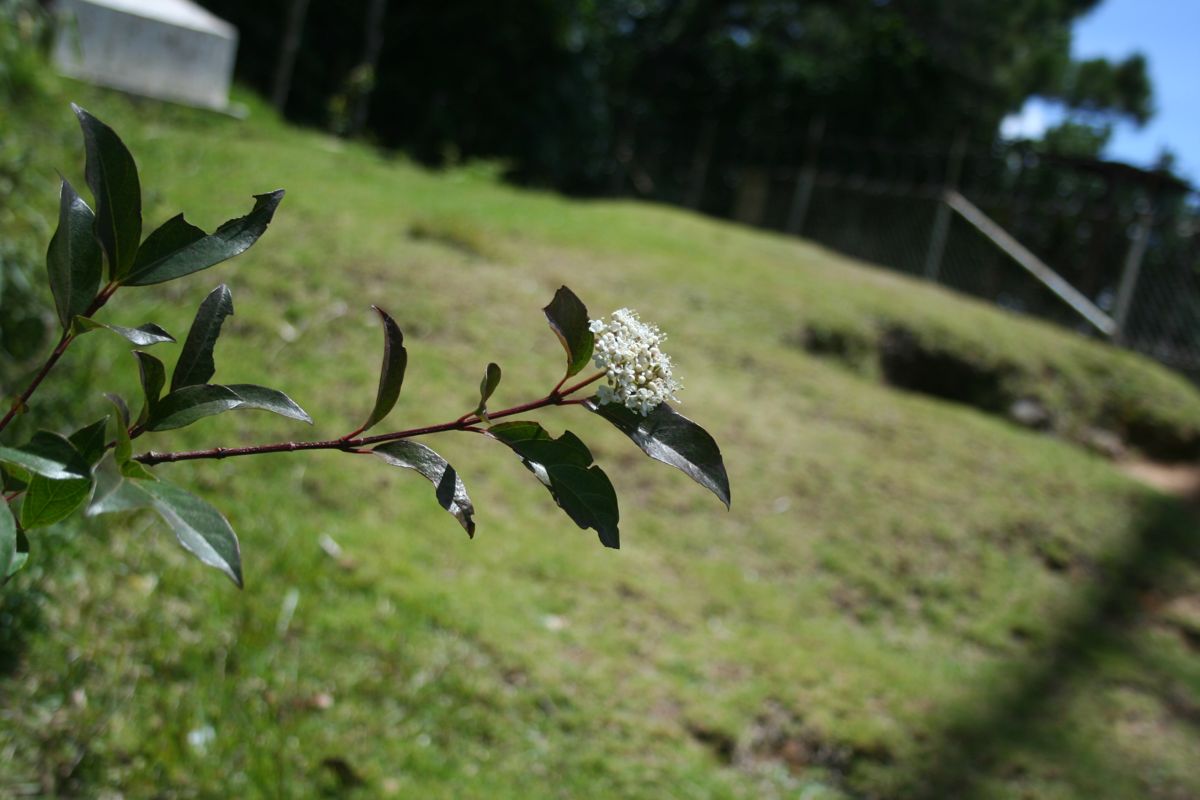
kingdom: Plantae
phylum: Tracheophyta
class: Magnoliopsida
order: Dipsacales
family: Viburnaceae
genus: Viburnum
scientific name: Viburnum hartwegii
